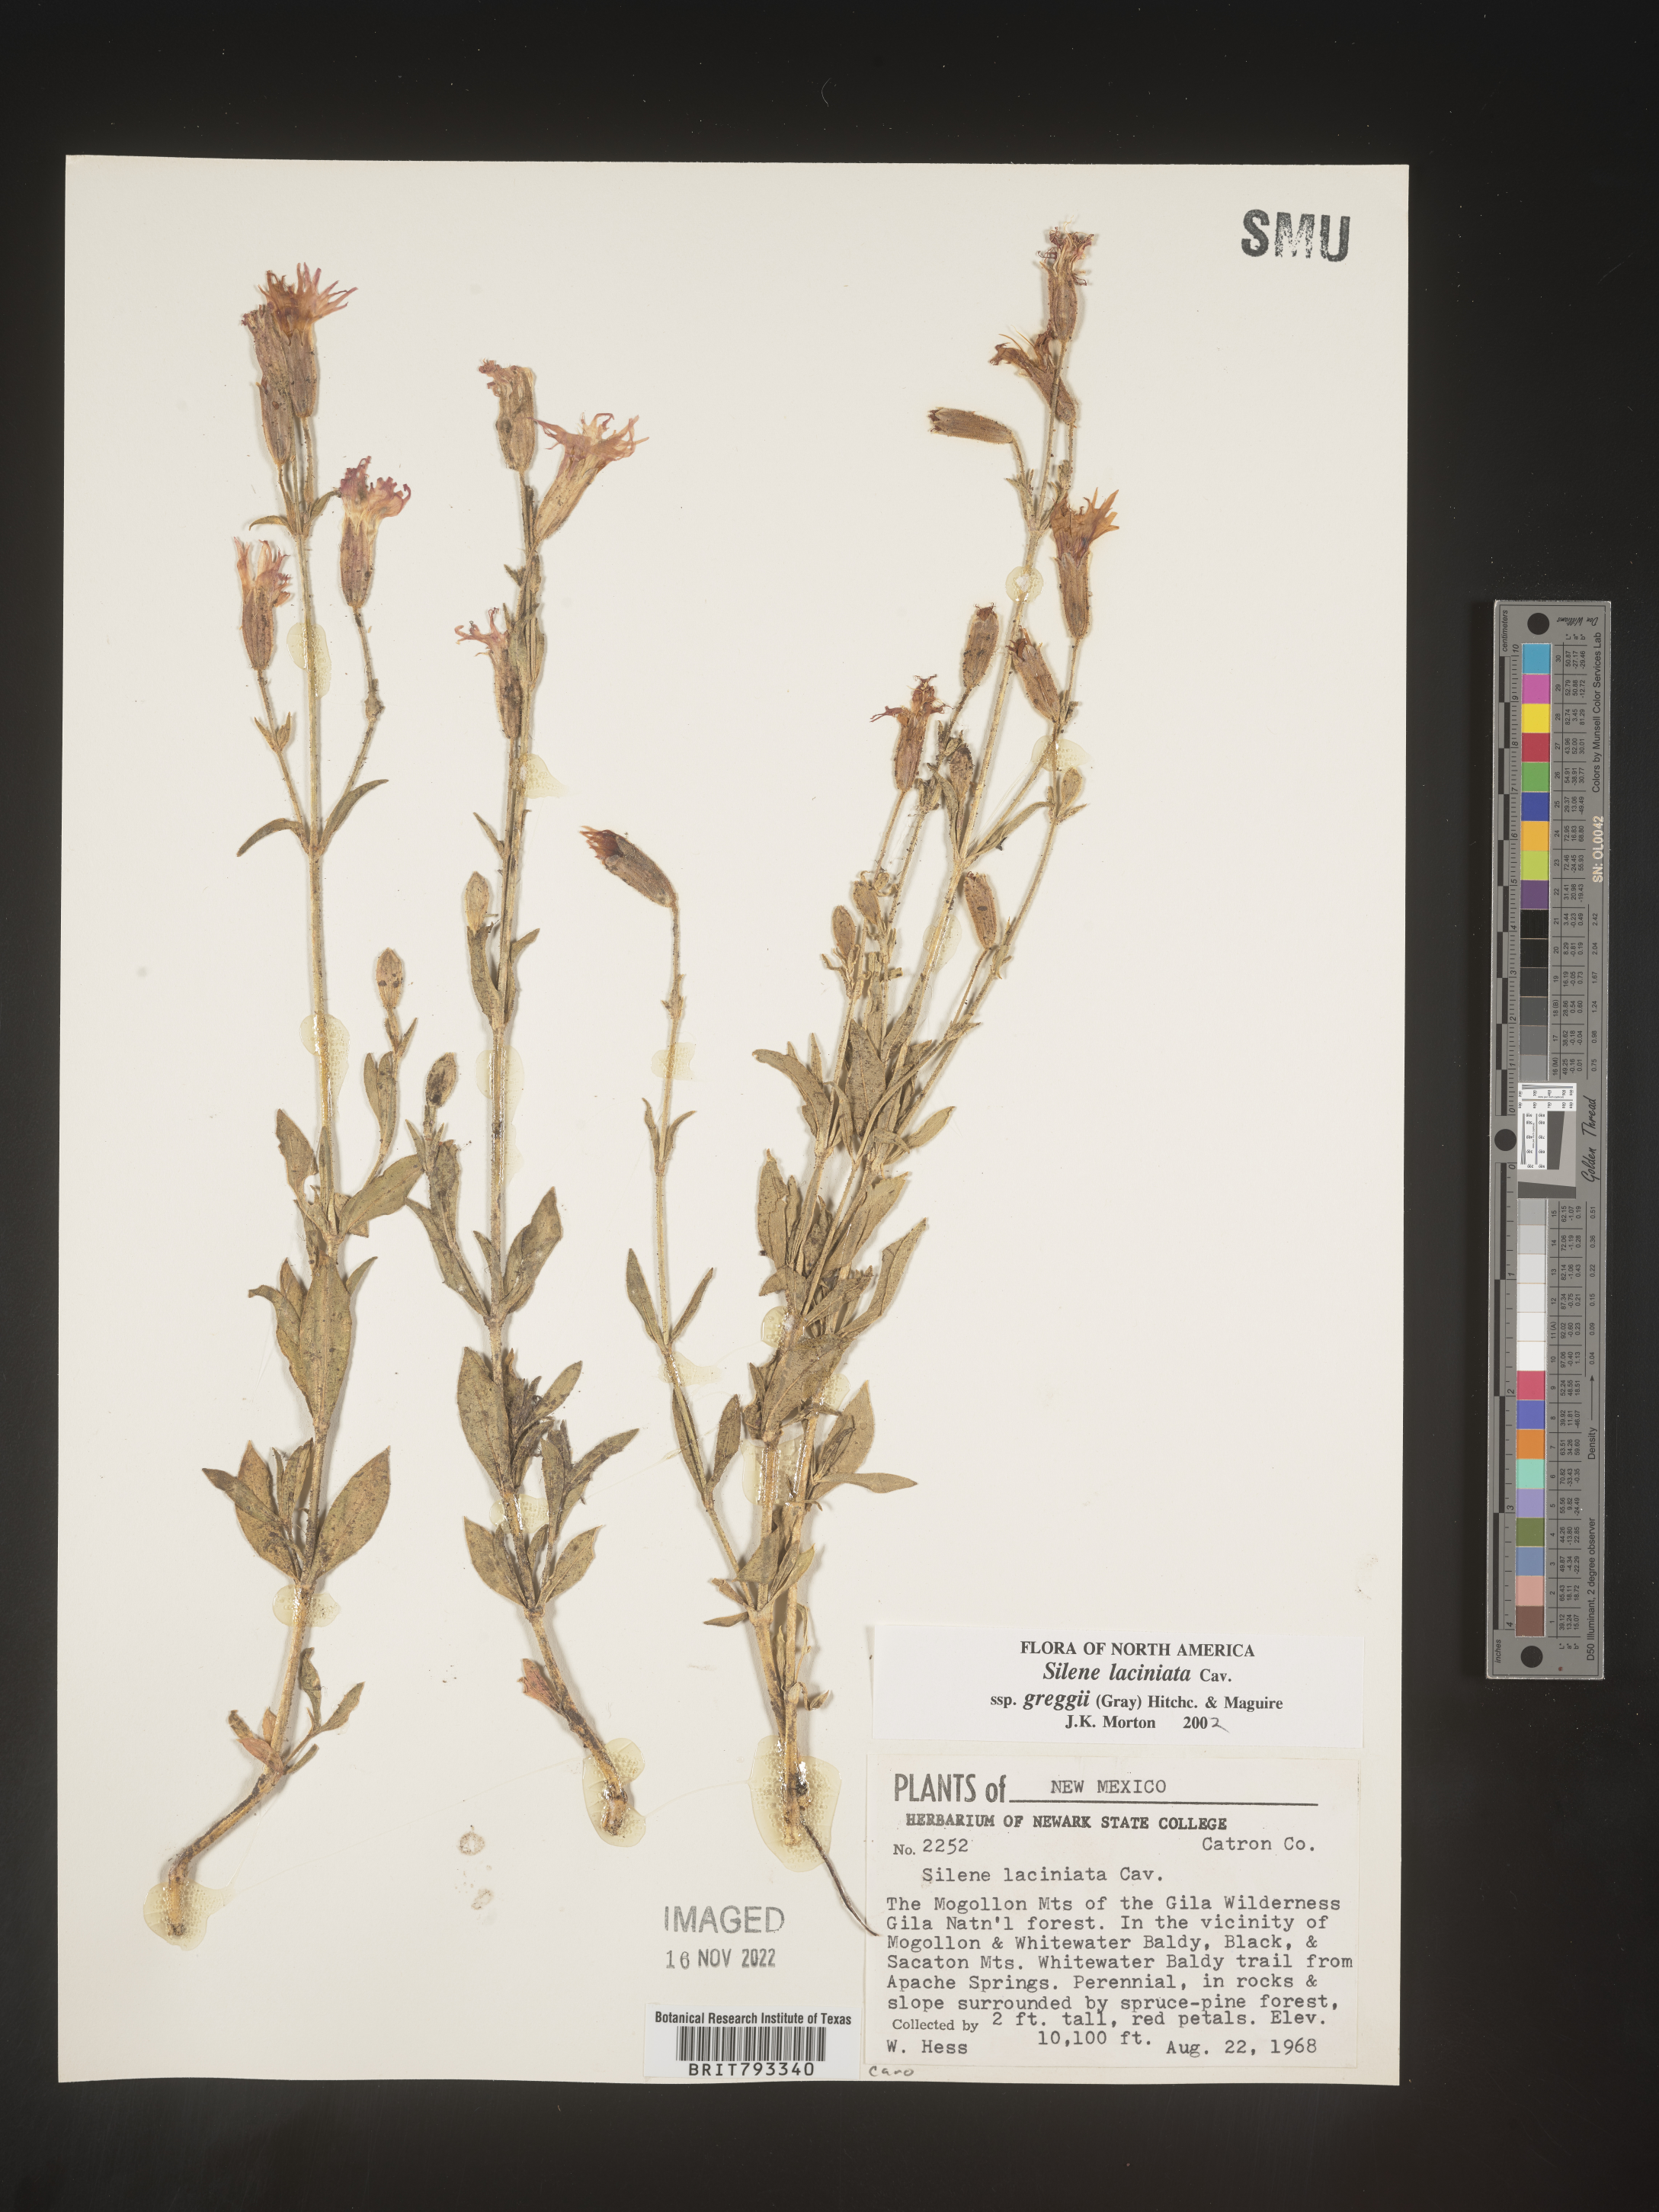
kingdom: Plantae
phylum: Tracheophyta
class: Magnoliopsida
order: Caryophyllales
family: Caryophyllaceae
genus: Silene
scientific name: Silene laciniata
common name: Indian-pink
